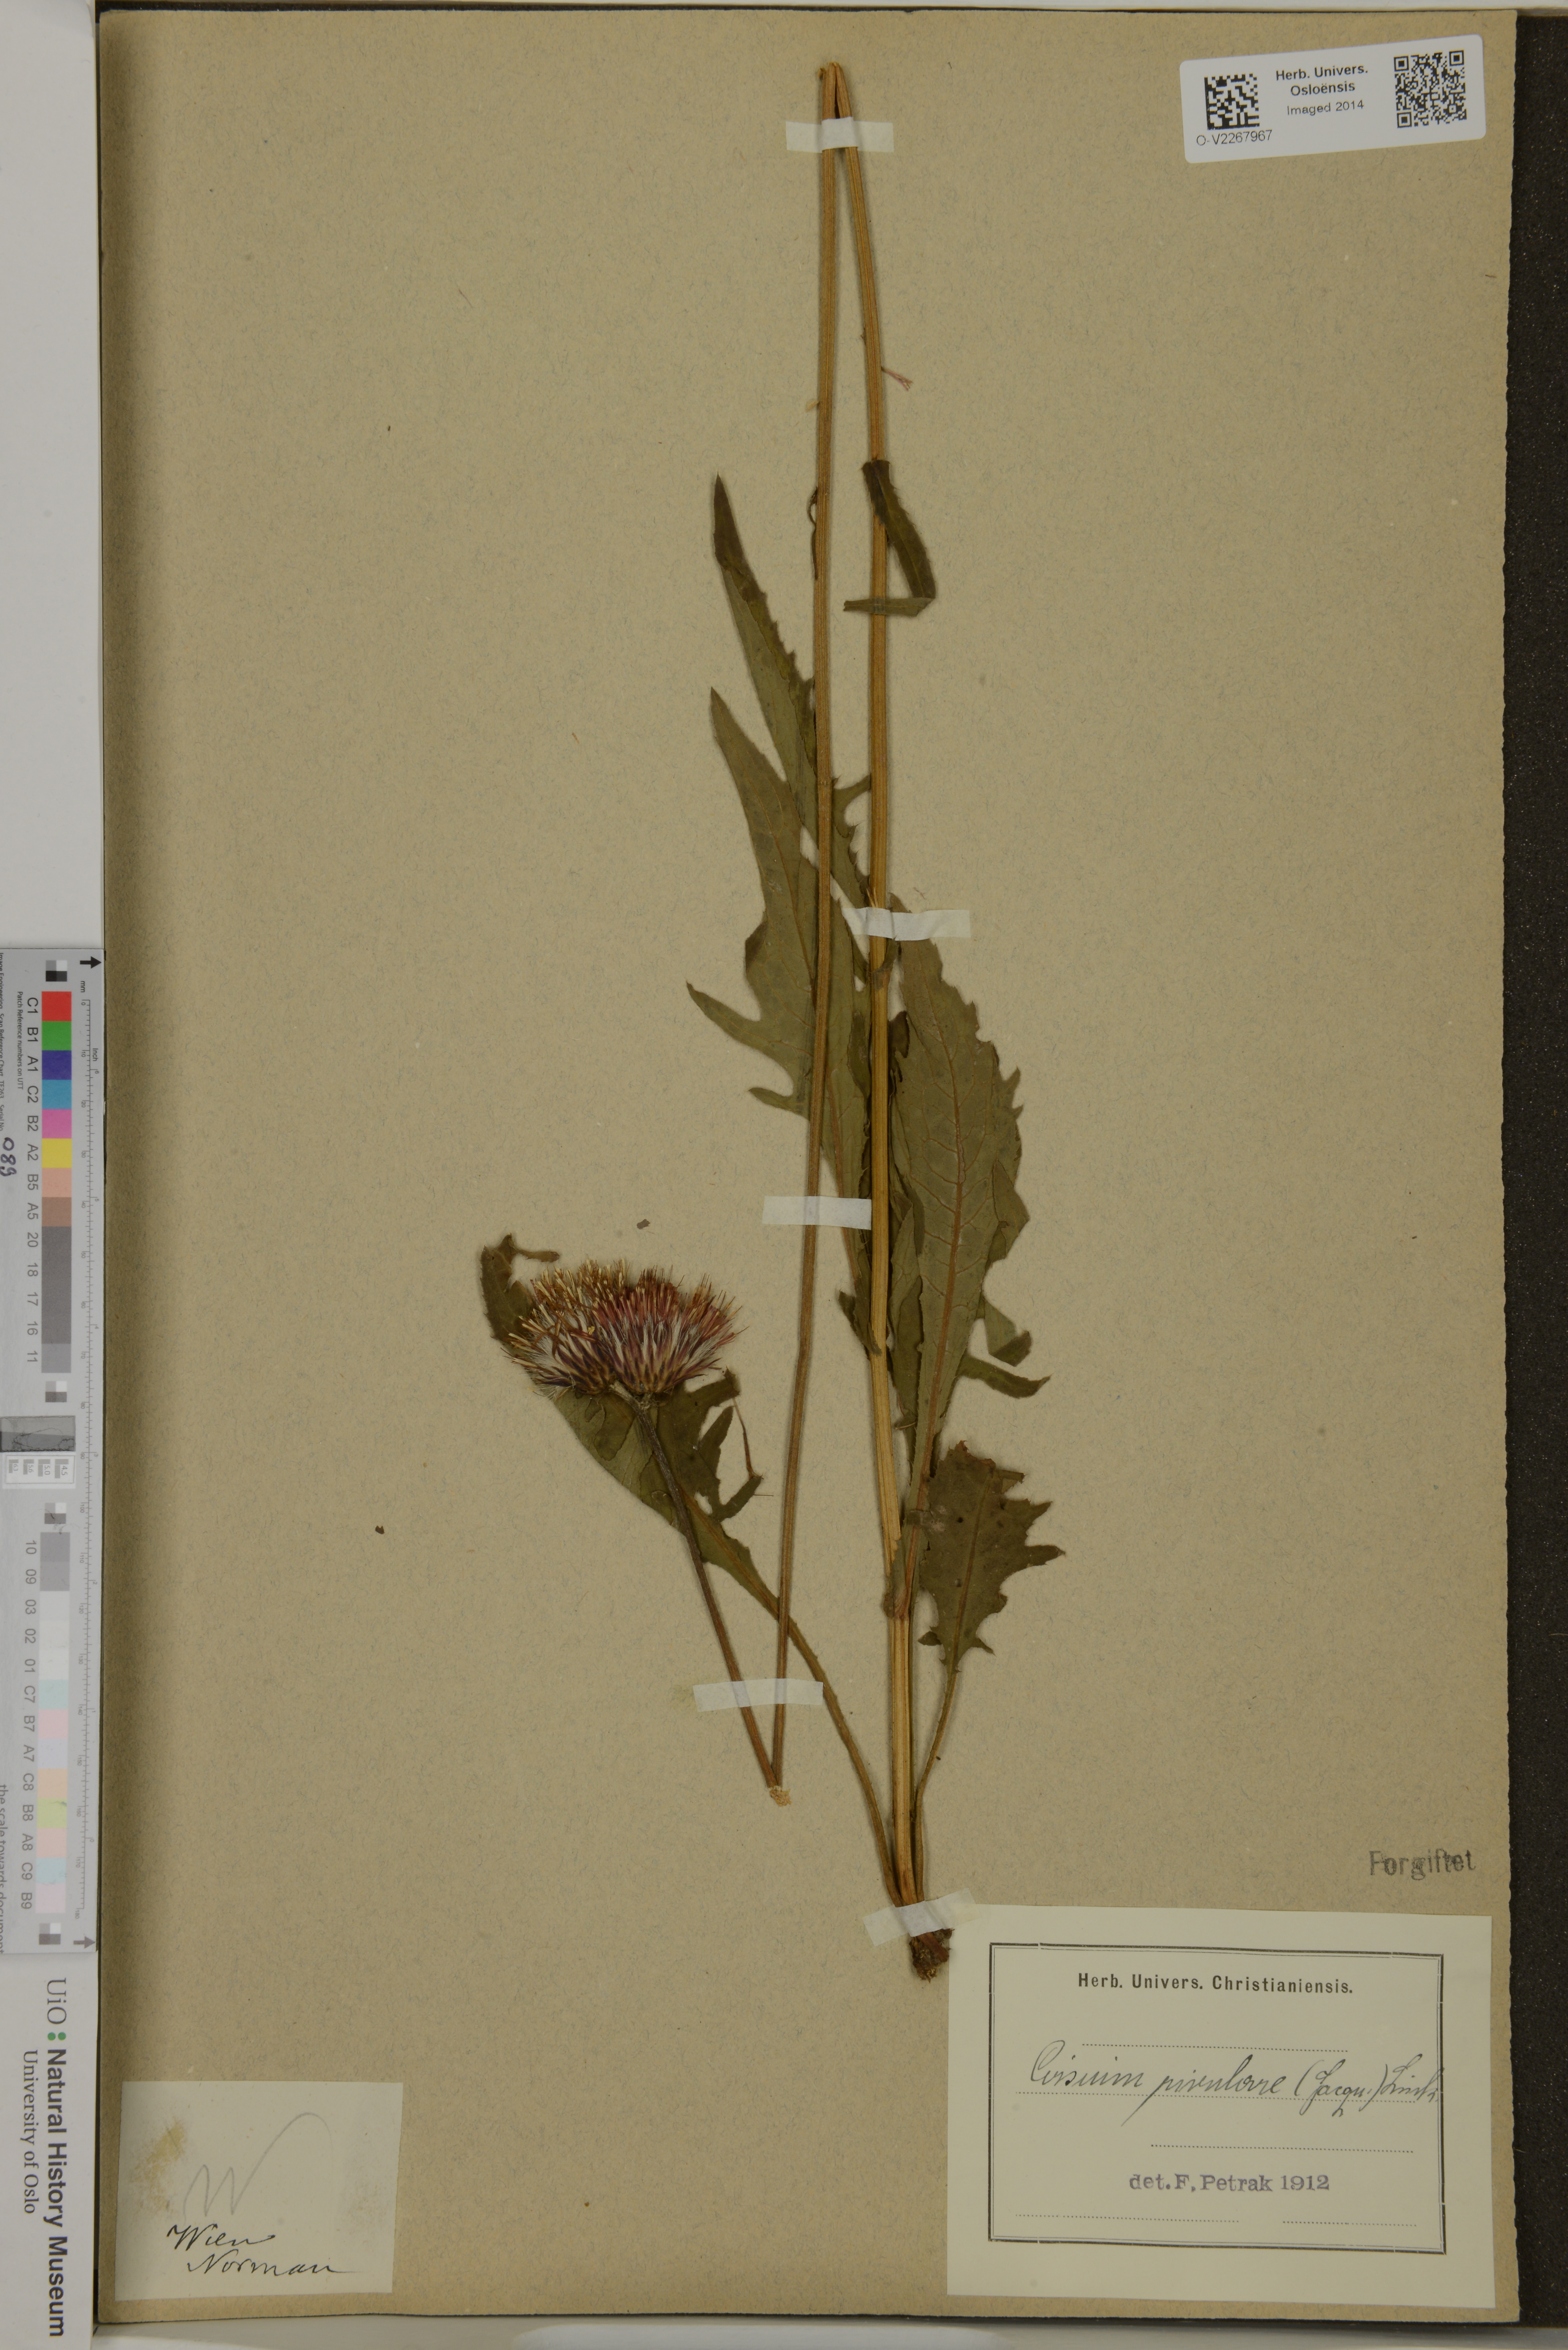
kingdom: Plantae
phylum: Tracheophyta
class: Magnoliopsida
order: Asterales
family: Asteraceae
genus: Cirsium
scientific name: Cirsium rivulare
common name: Brook thistle
